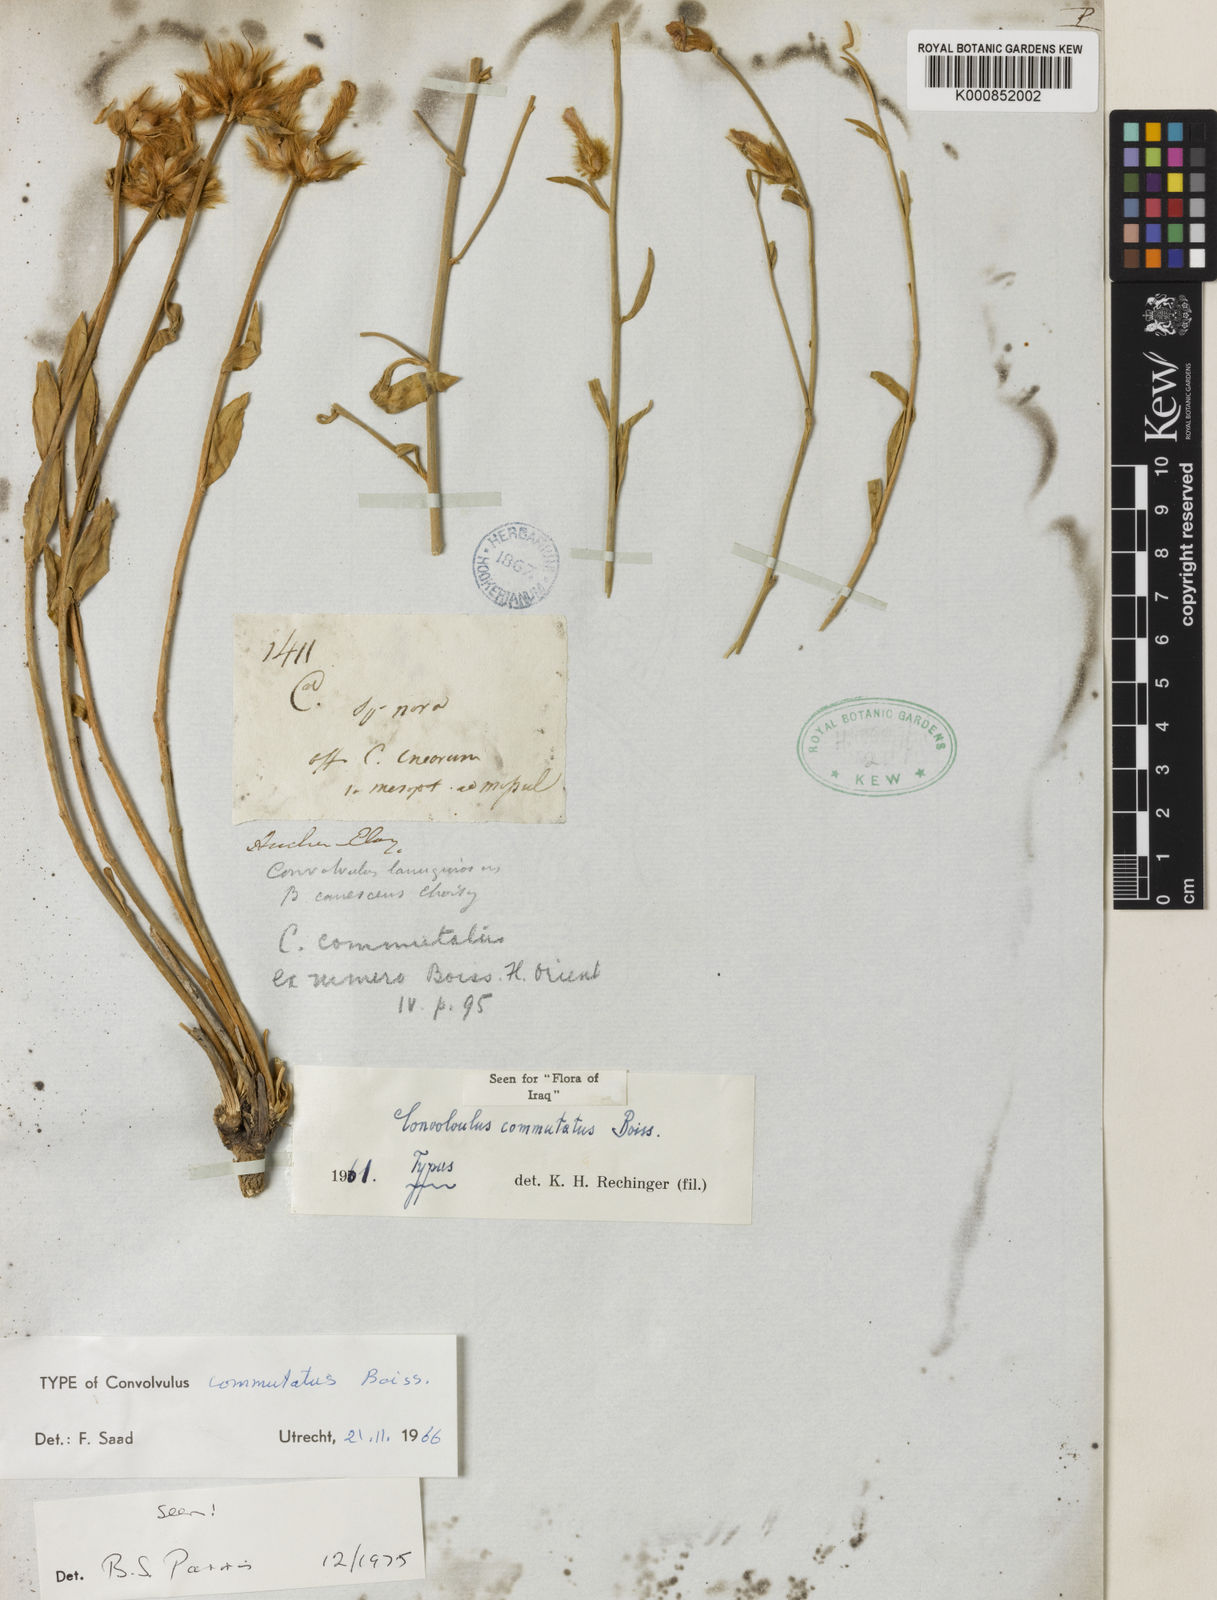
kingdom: Plantae
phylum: Tracheophyta
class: Magnoliopsida
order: Solanales
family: Convolvulaceae
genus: Convolvulus
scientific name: Convolvulus commutatus
